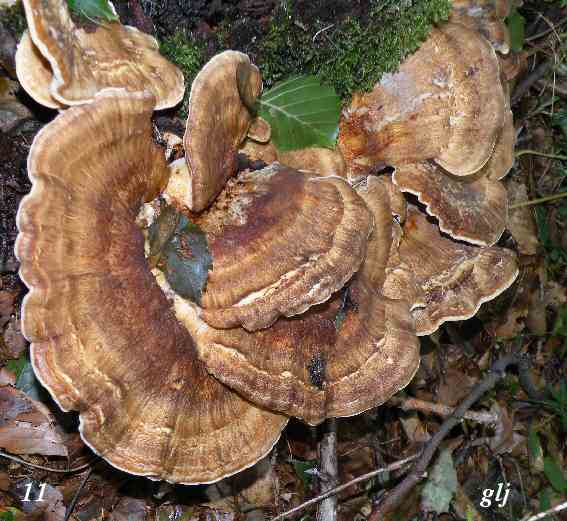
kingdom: Fungi
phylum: Basidiomycota
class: Agaricomycetes
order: Polyporales
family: Meripilaceae
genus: Meripilus
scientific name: Meripilus giganteus
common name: kæmpeporesvamp
